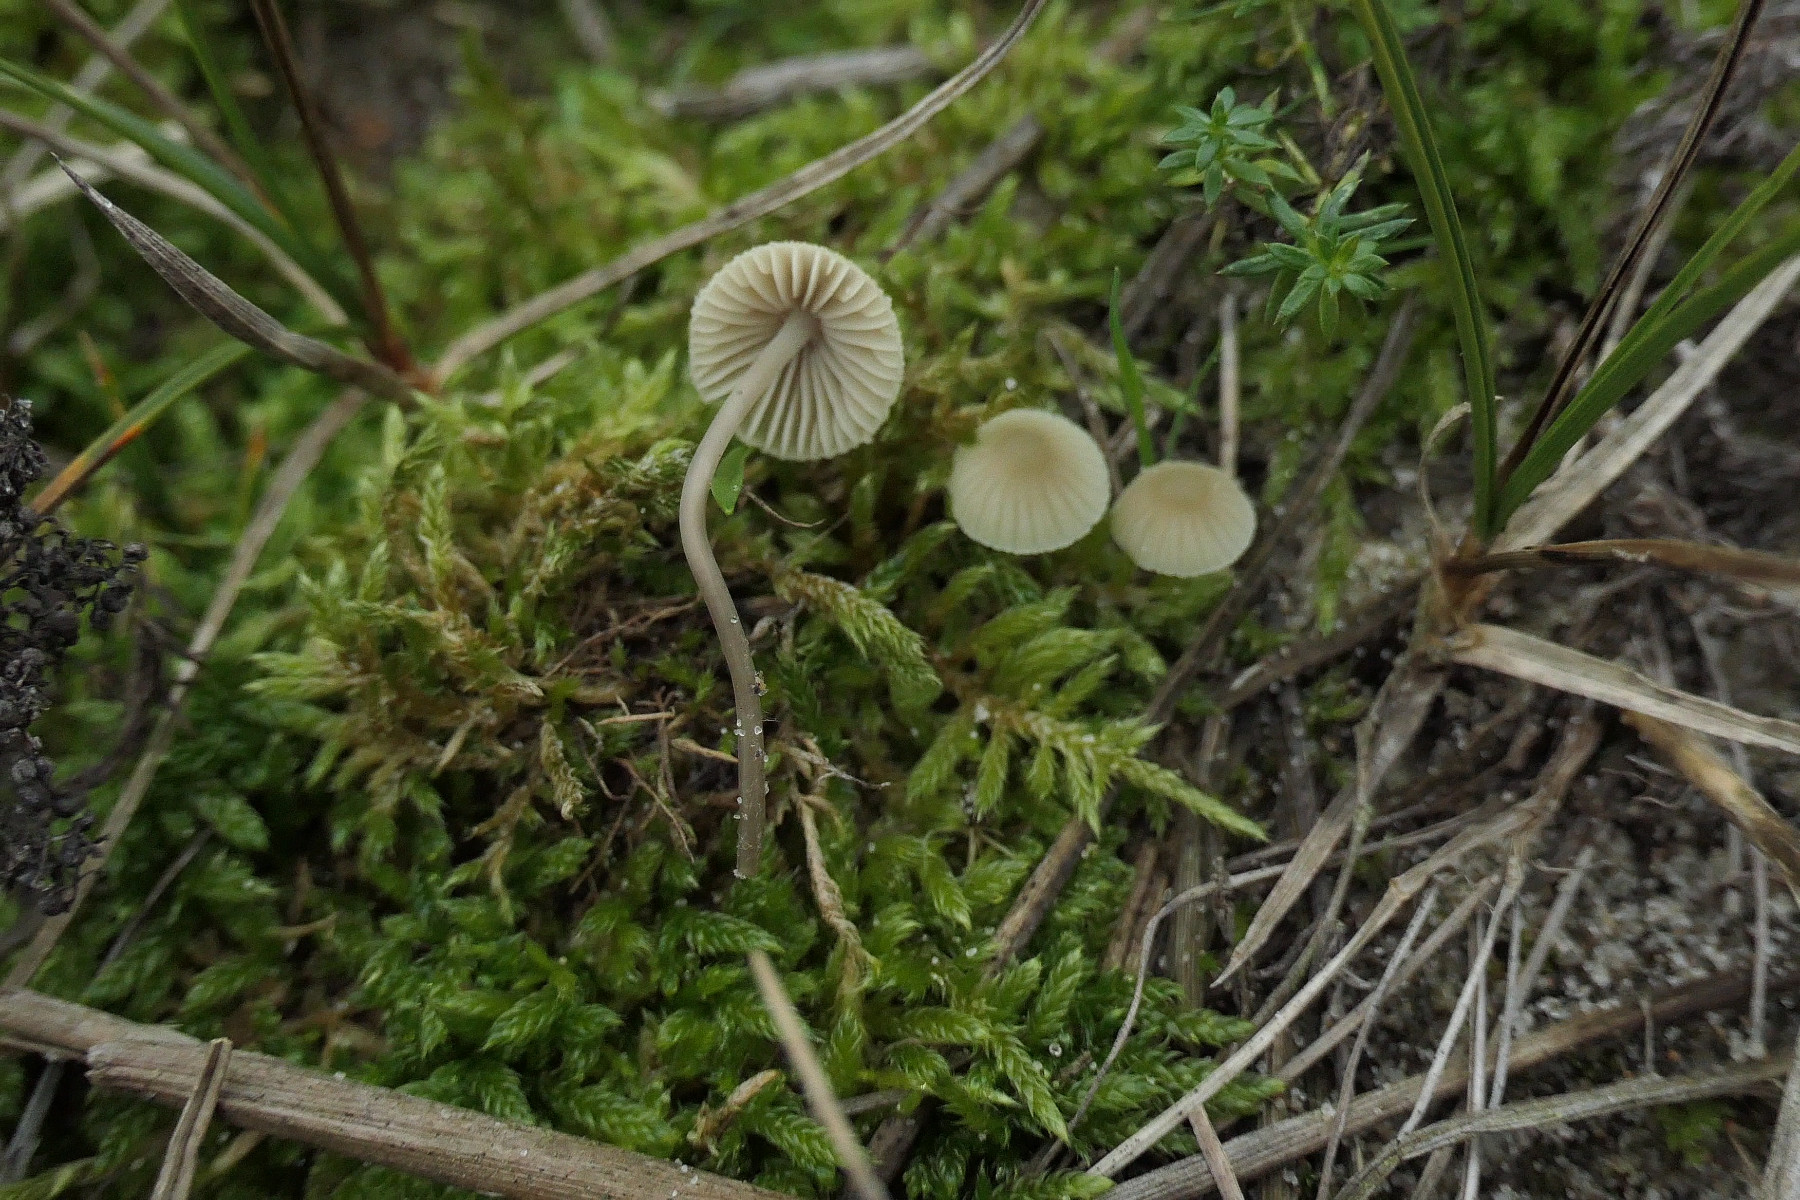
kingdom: Fungi
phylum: Basidiomycota
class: Agaricomycetes
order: Agaricales
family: Mycenaceae
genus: Mycena
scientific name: Mycena chlorantha
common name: klit-huesvamp
